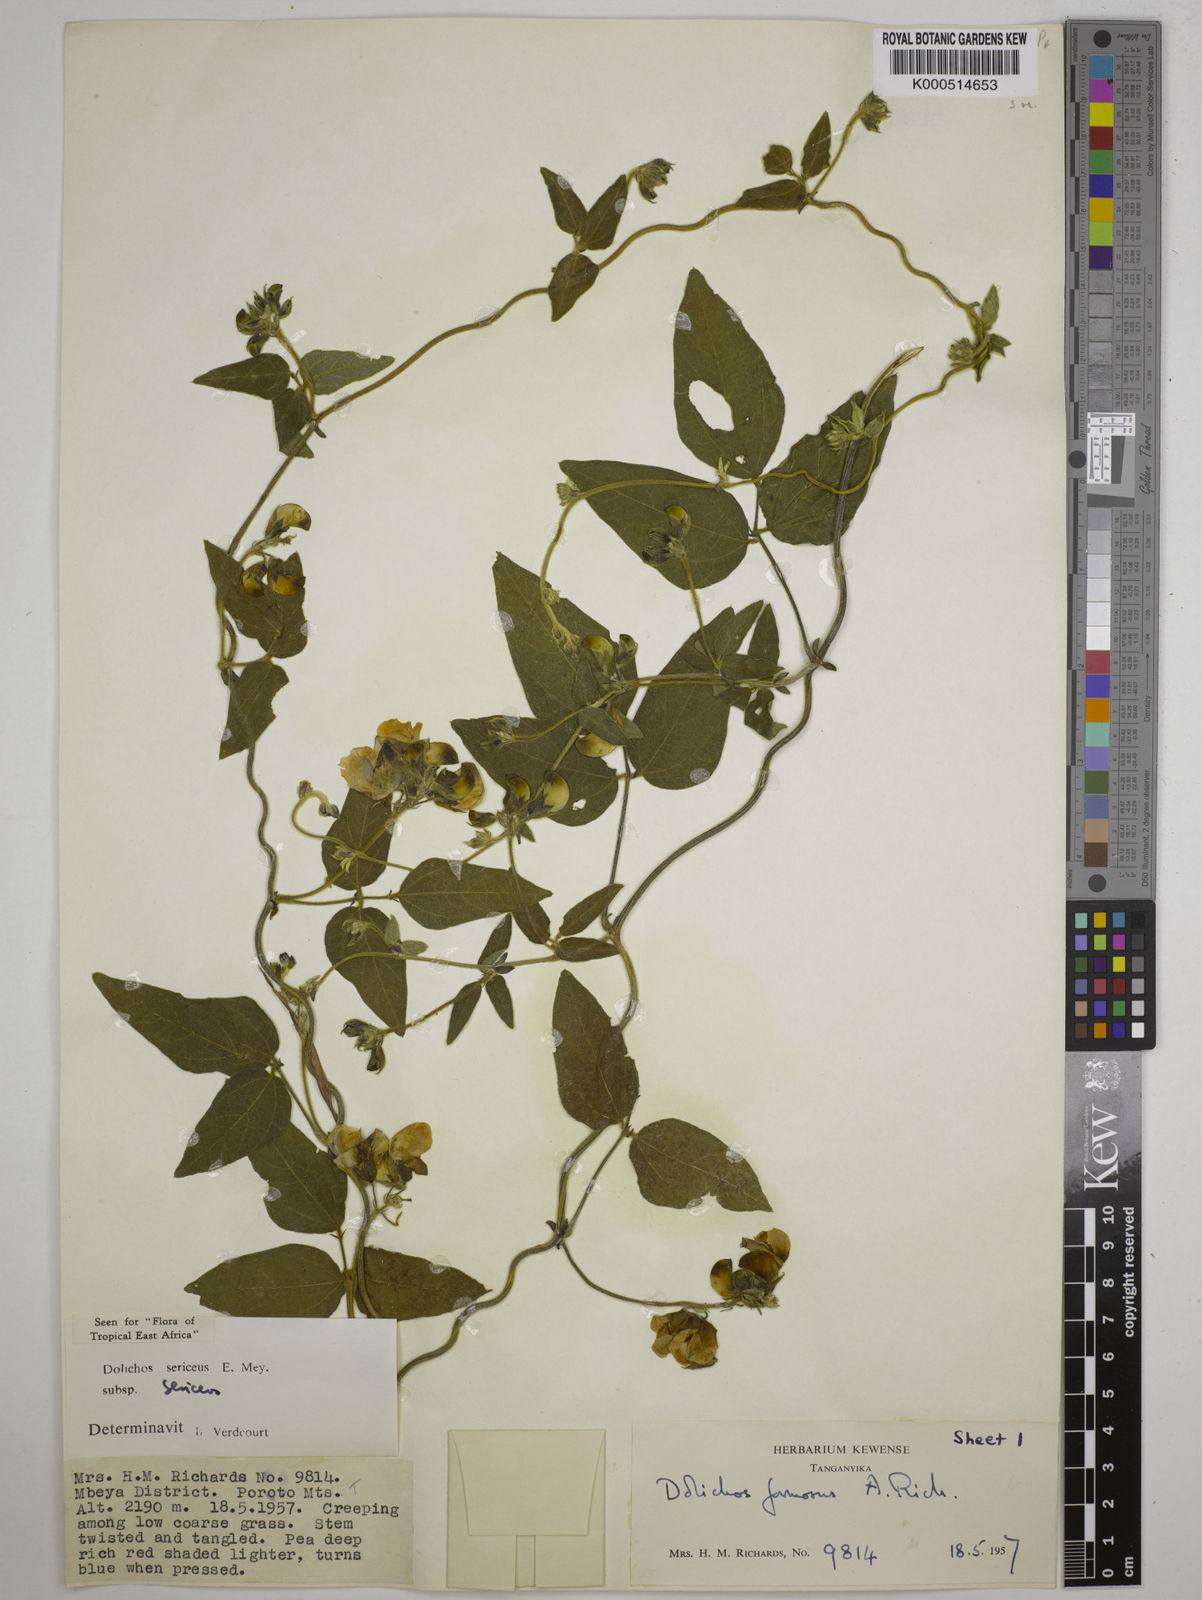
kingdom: Plantae
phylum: Tracheophyta
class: Magnoliopsida
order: Fabales
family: Fabaceae
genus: Dolichos
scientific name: Dolichos sericeus
